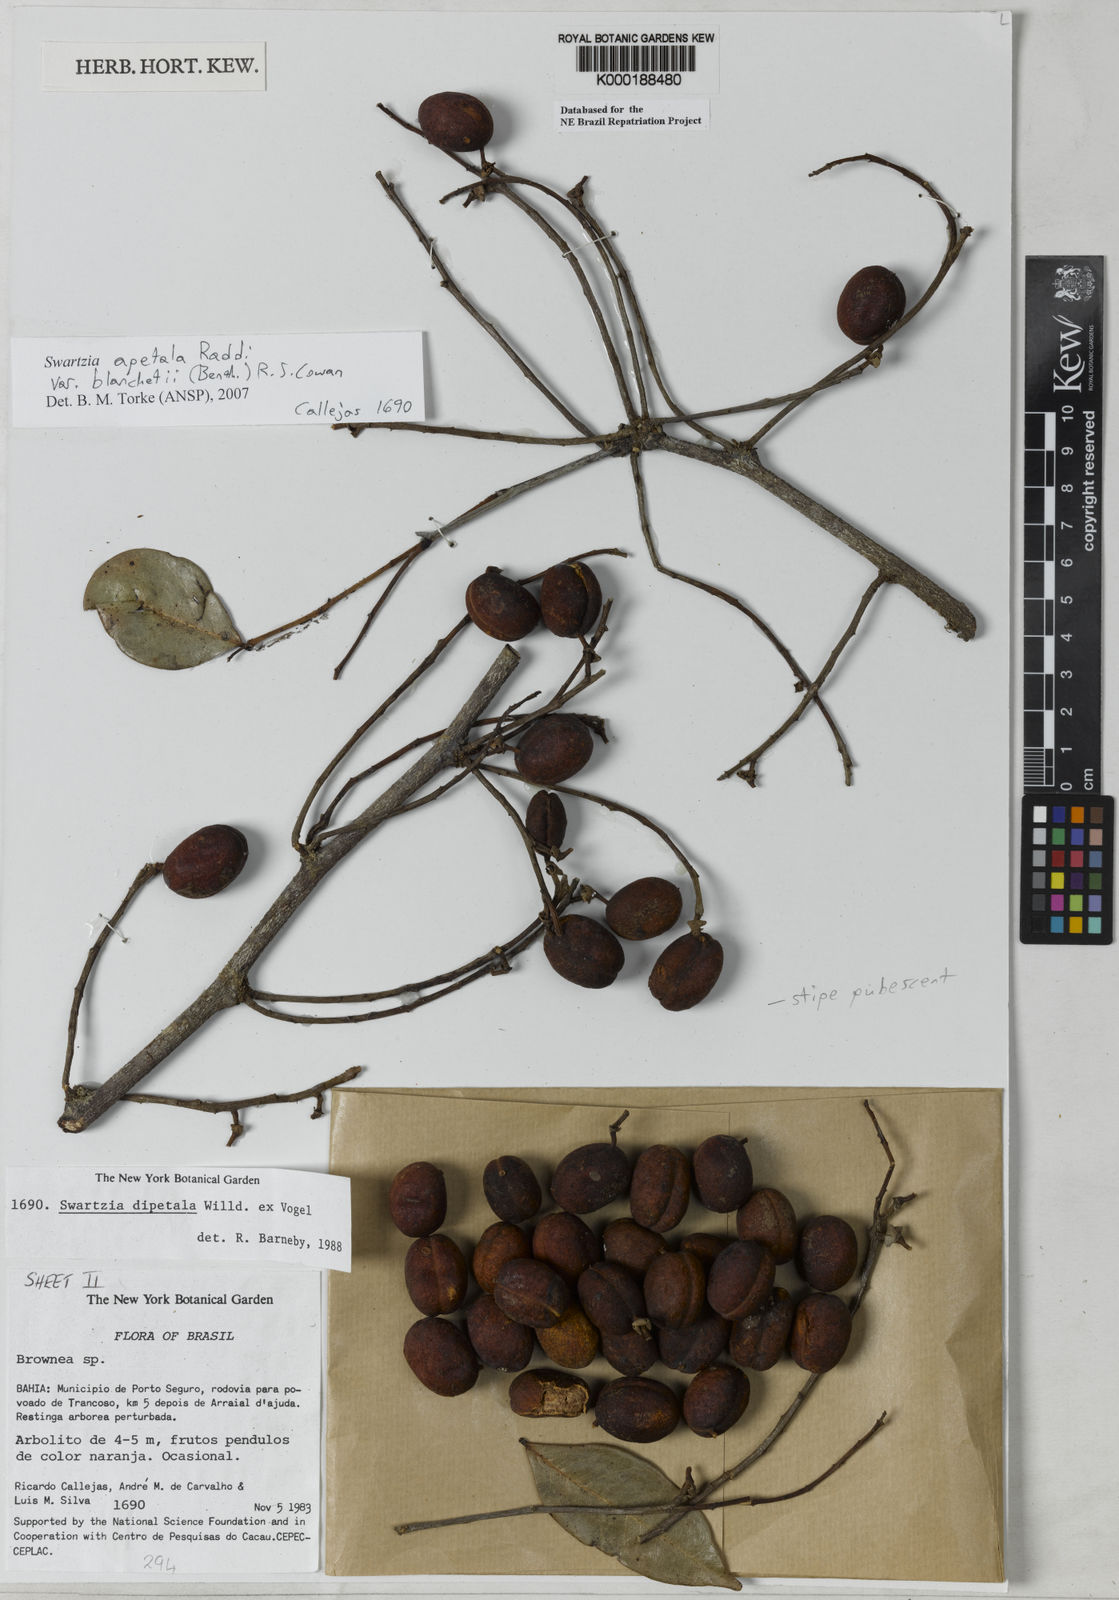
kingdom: Plantae
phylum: Tracheophyta
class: Magnoliopsida
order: Fabales
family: Fabaceae
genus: Swartzia
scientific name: Swartzia dipetala
